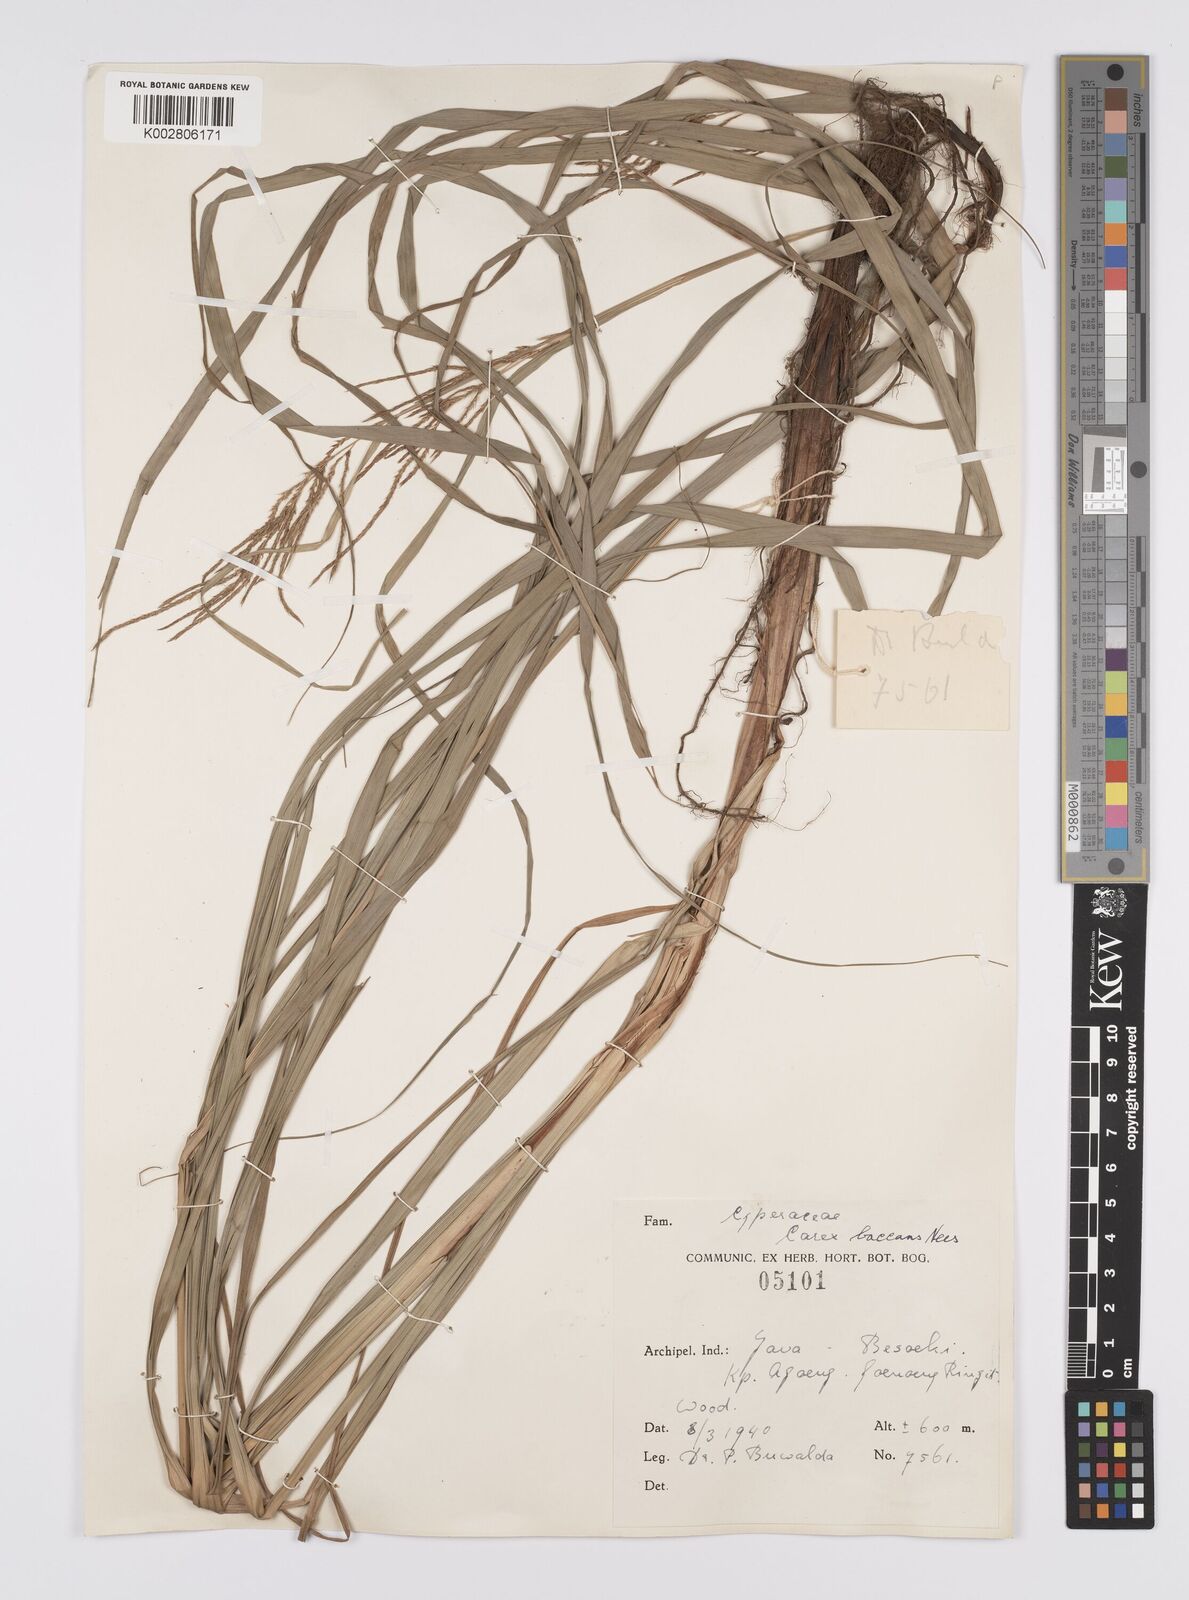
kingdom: Plantae
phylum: Tracheophyta
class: Liliopsida
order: Poales
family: Cyperaceae
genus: Carex
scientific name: Carex baccans
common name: Crimson seeded sedge
